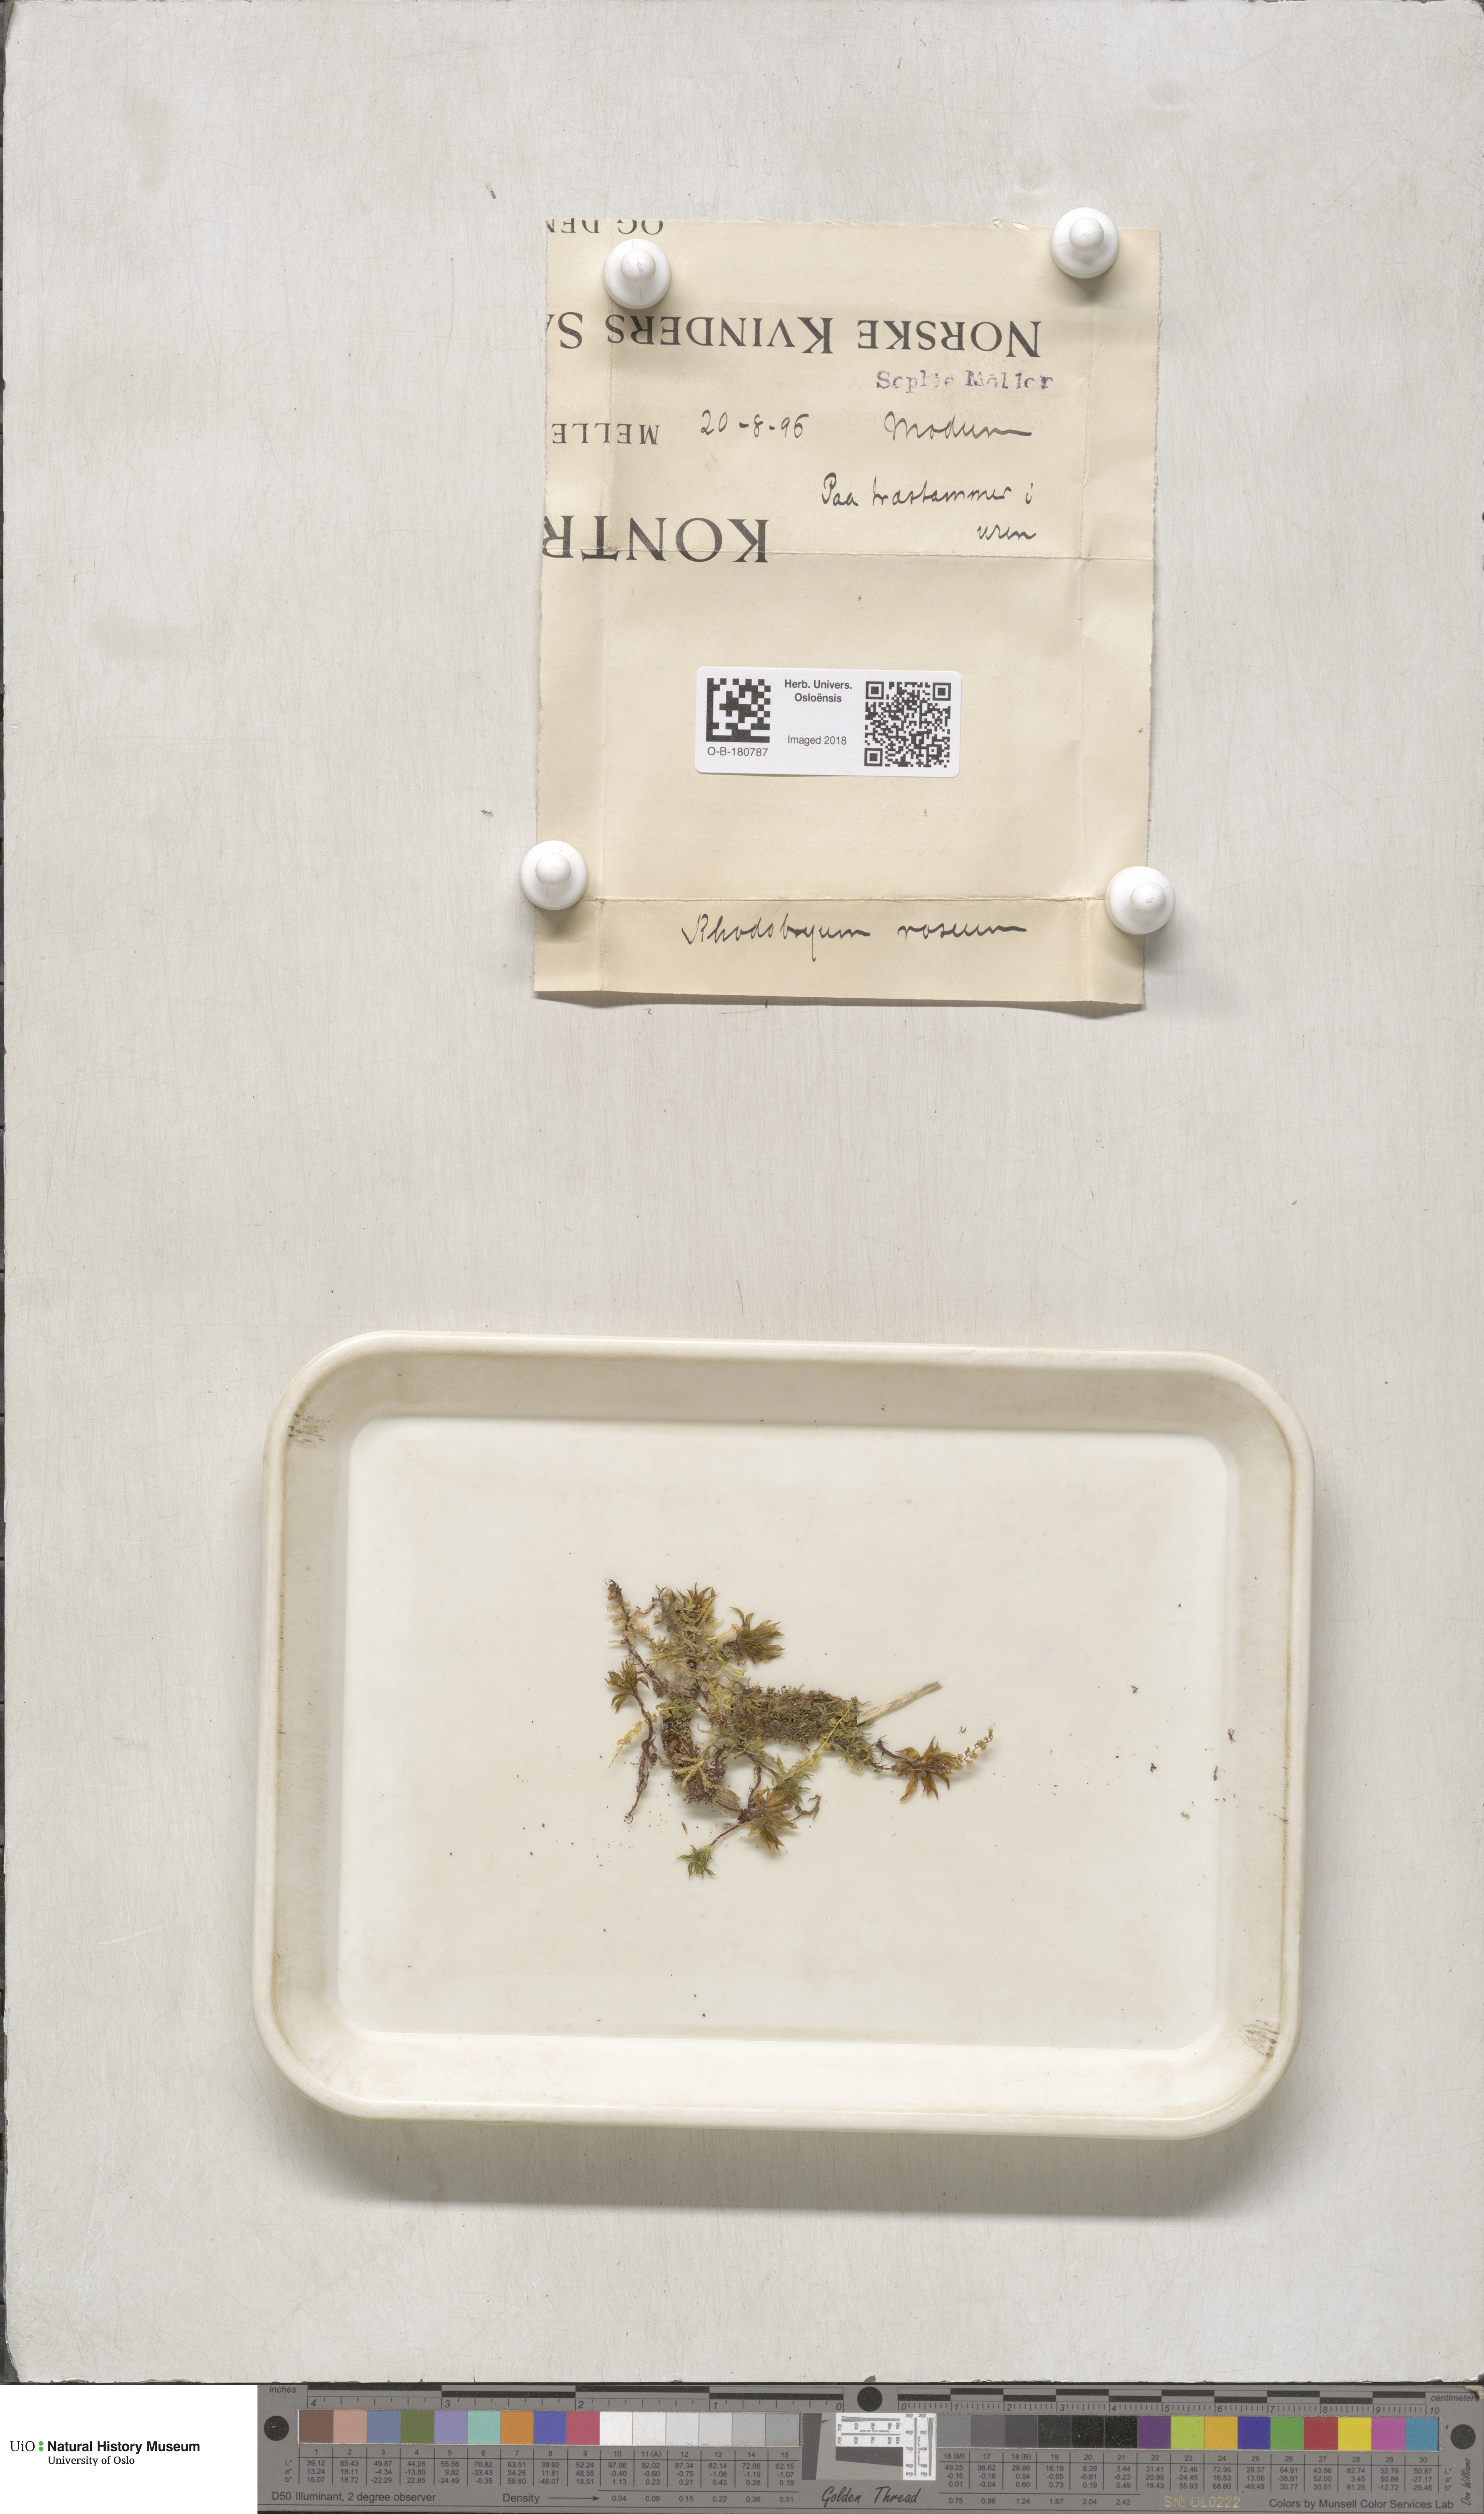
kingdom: Plantae
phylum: Bryophyta
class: Bryopsida
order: Bryales
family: Bryaceae
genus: Rhodobryum
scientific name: Rhodobryum roseum
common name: Rose-moss
